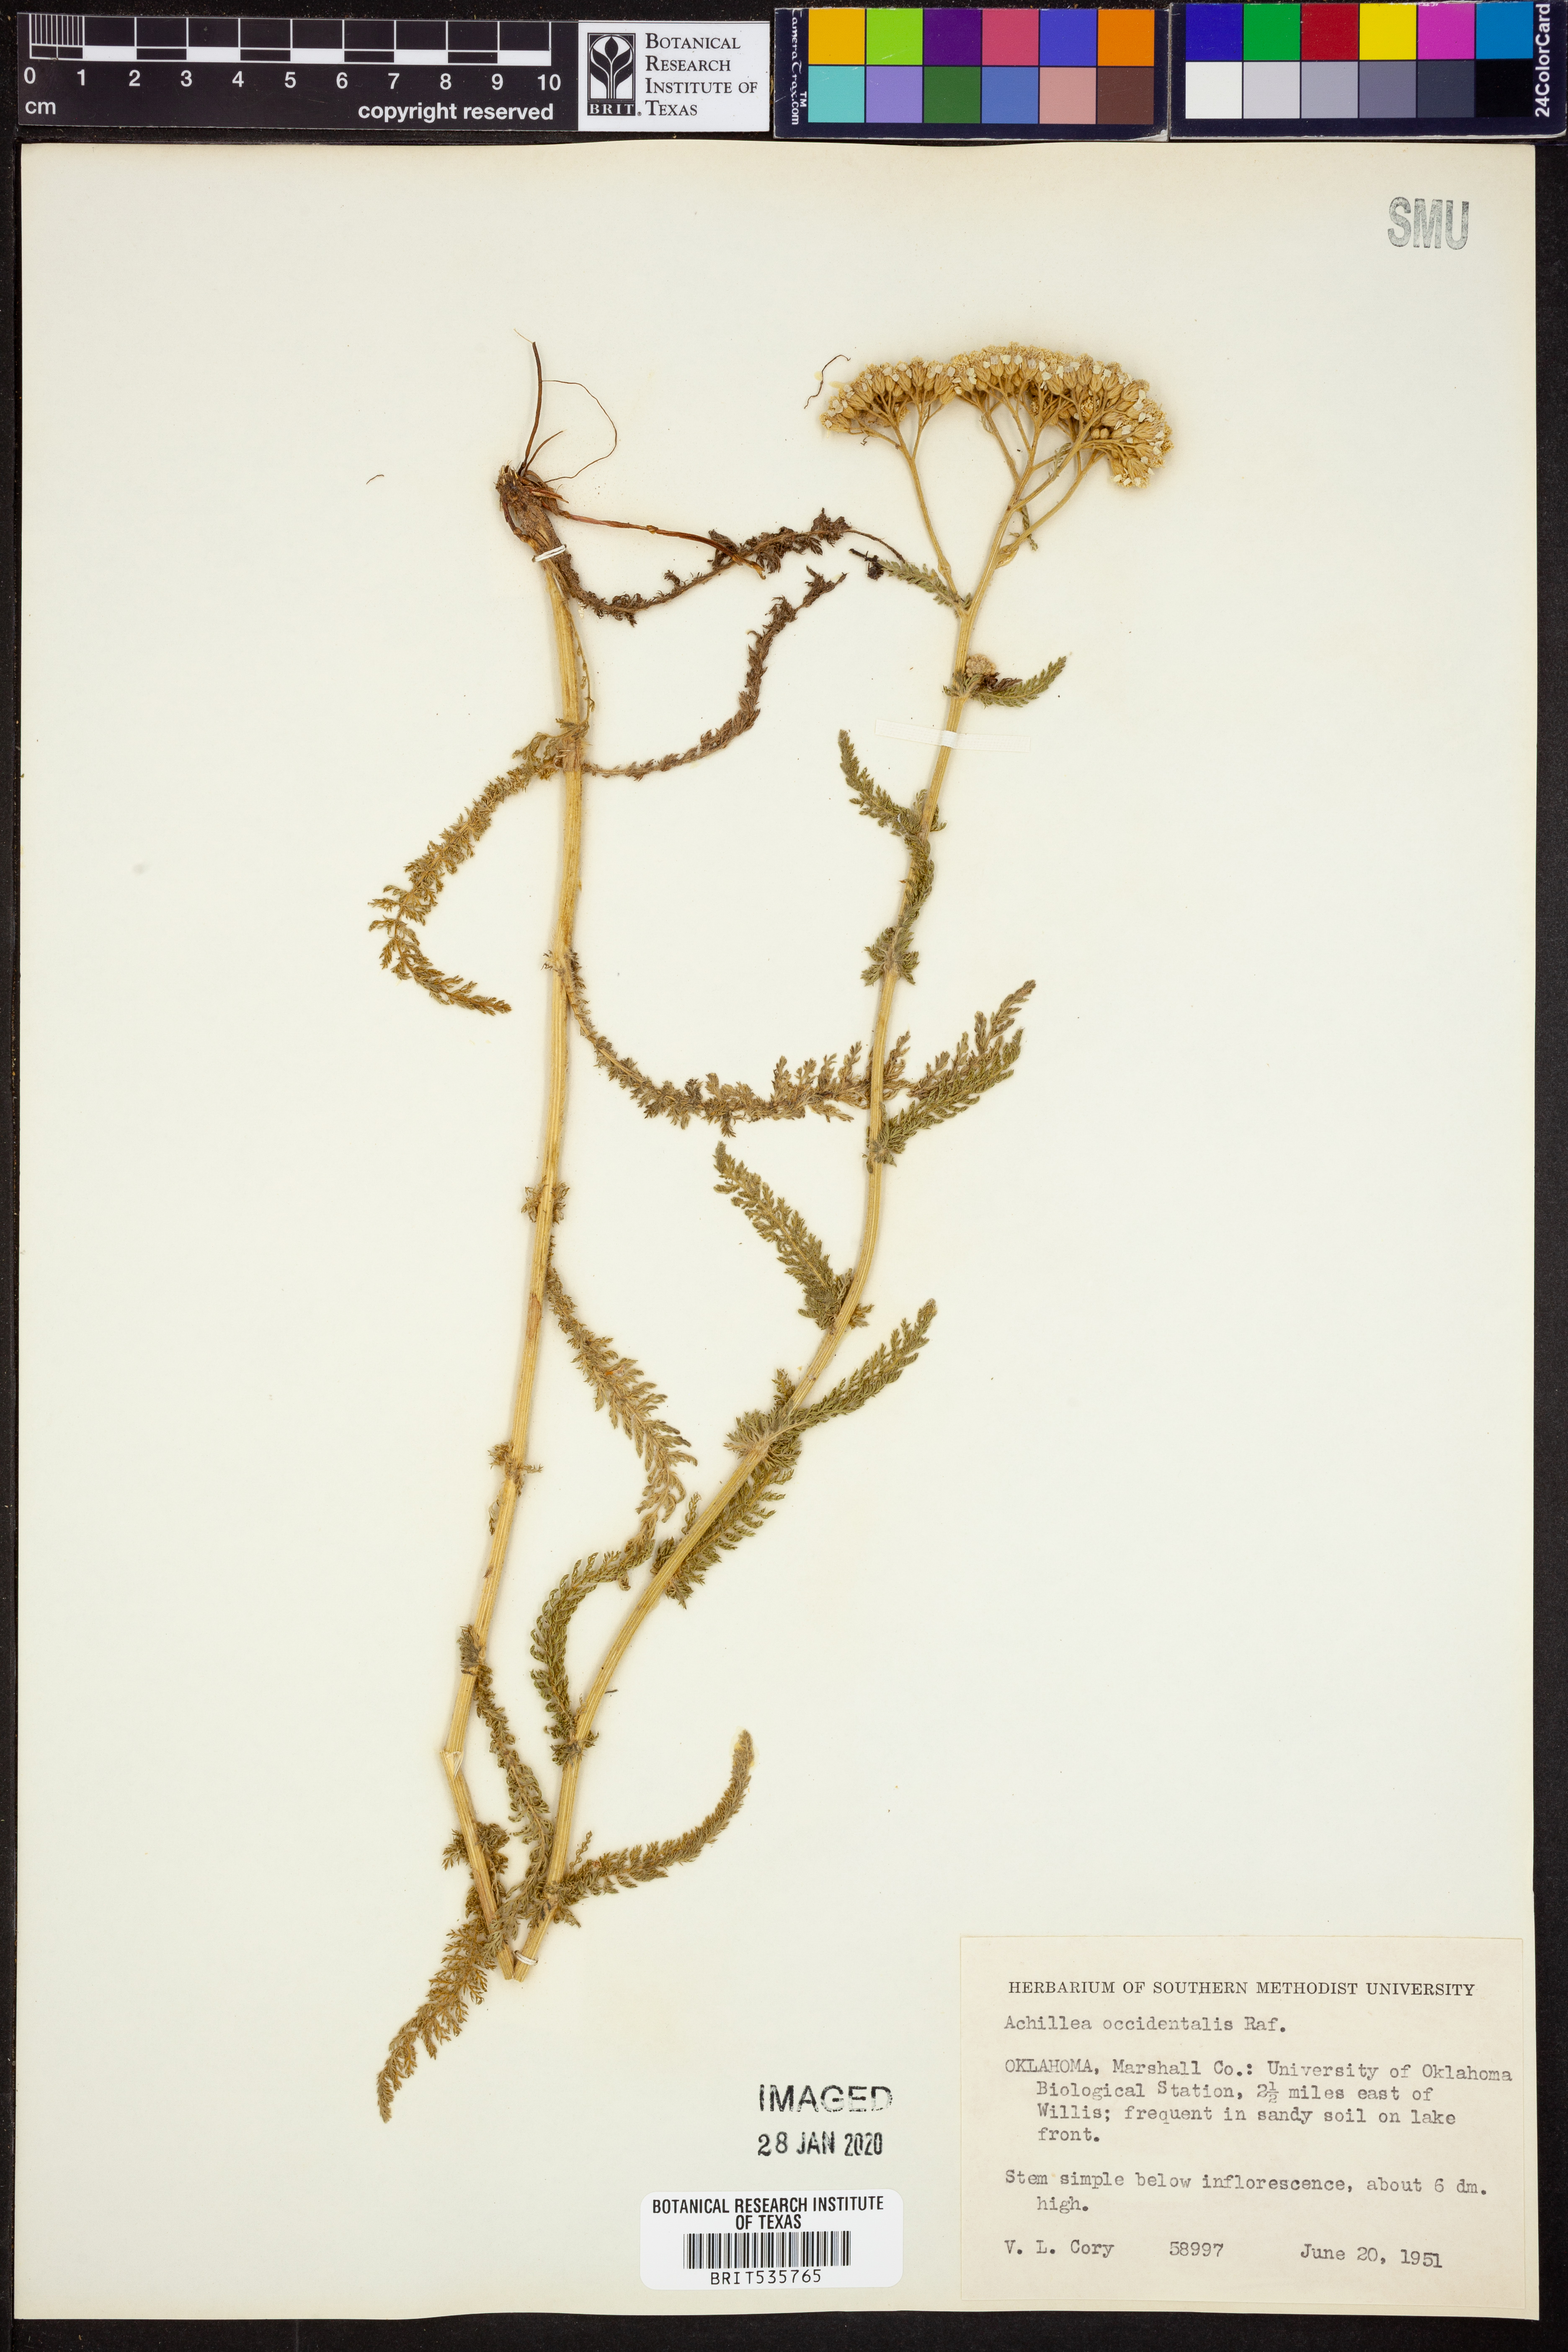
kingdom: Plantae
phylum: Tracheophyta
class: Magnoliopsida
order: Asterales
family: Asteraceae
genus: Achillea
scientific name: Achillea millefolium
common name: Yarrow
